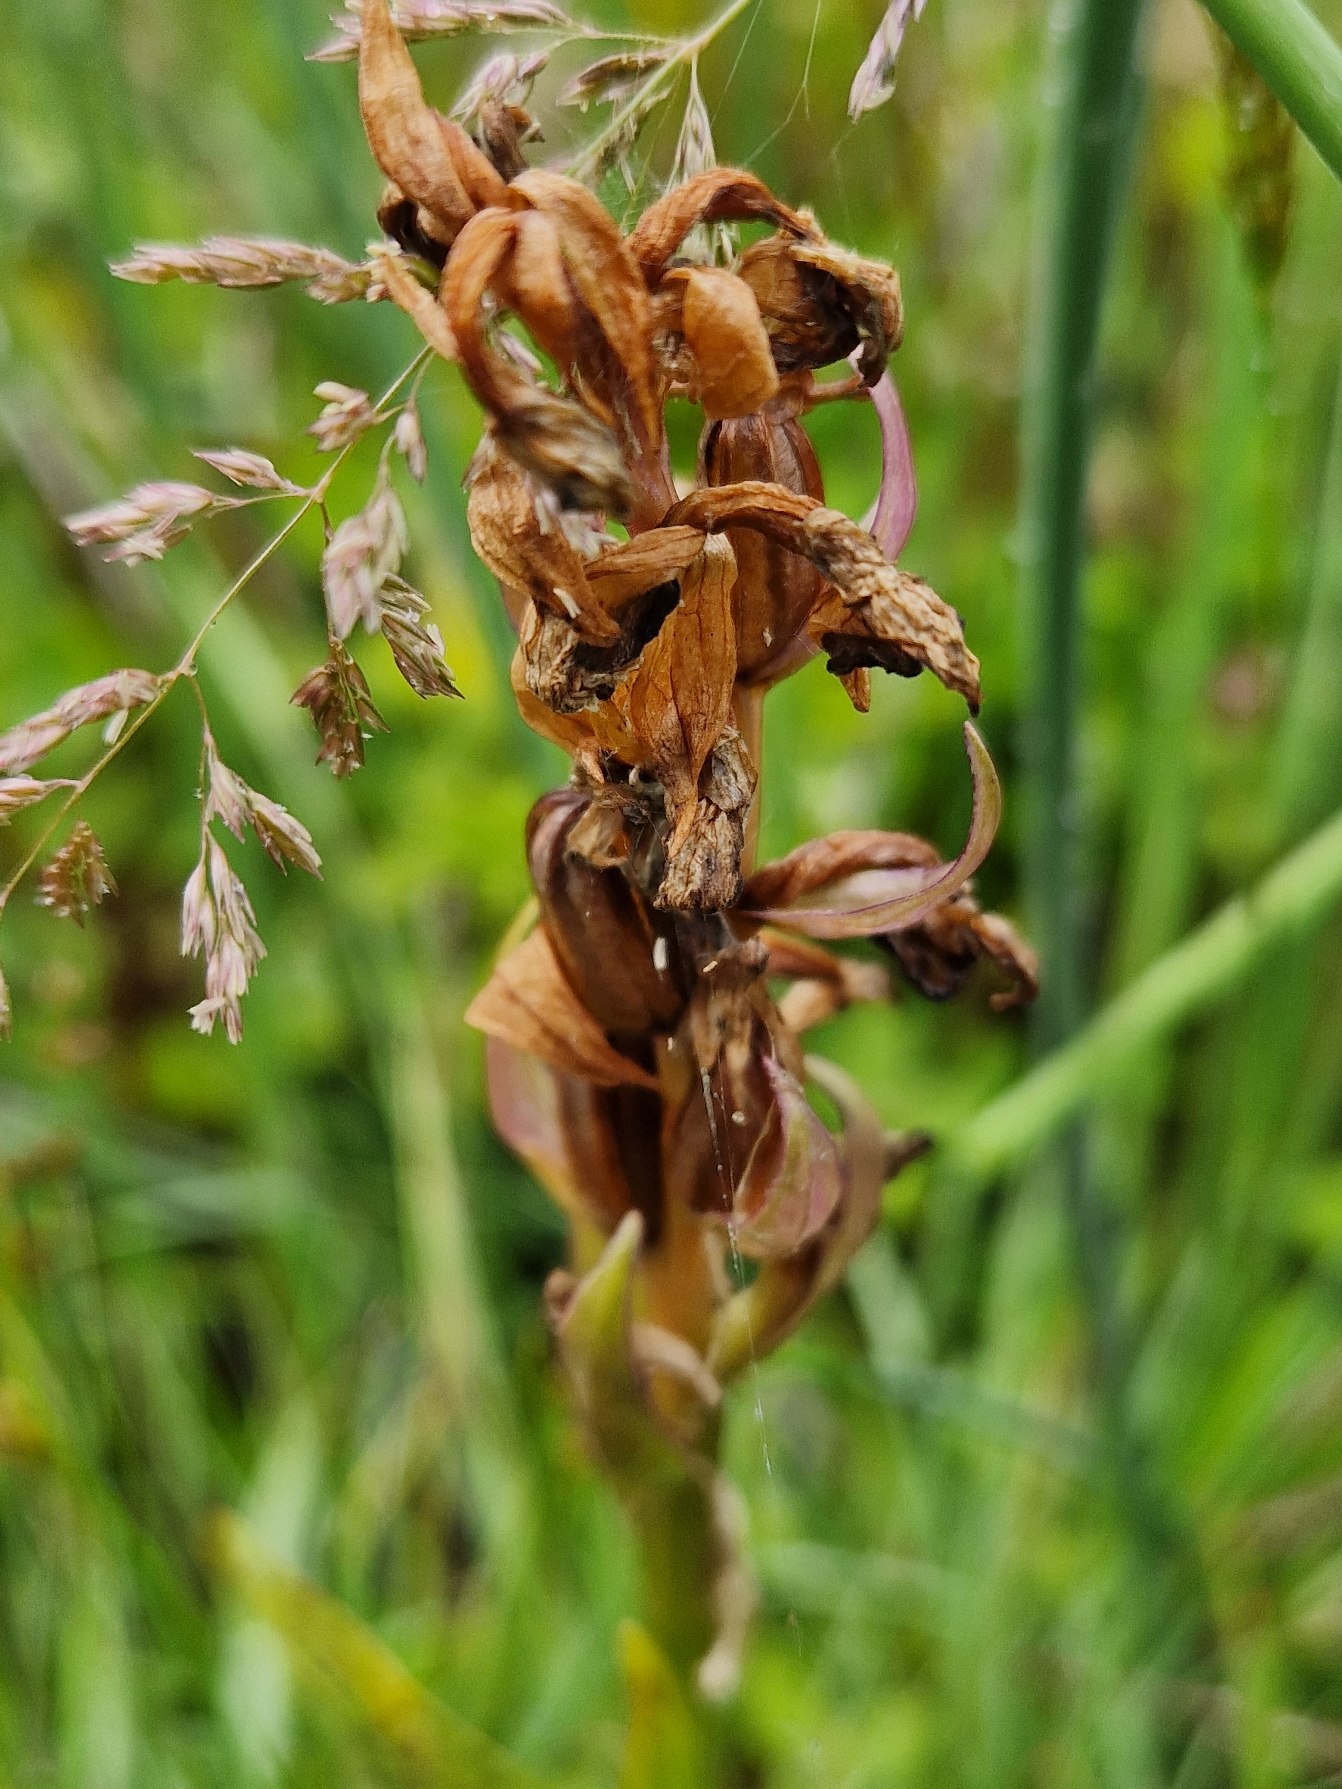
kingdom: Plantae
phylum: Tracheophyta
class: Liliopsida
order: Asparagales
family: Orchidaceae
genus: Dactylorhiza
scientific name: Dactylorhiza majalis
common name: Maj-gøgeurt
